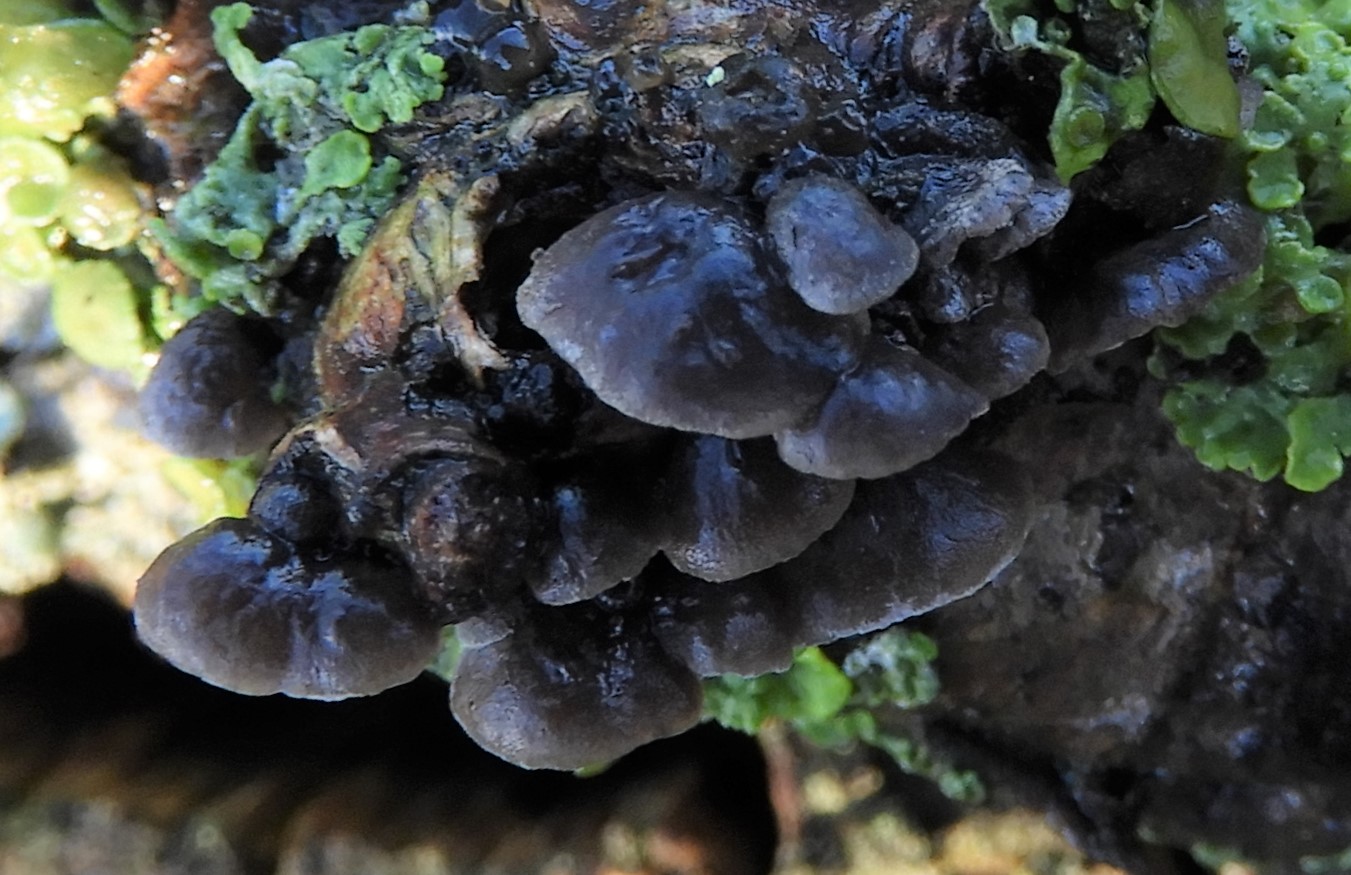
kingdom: Fungi
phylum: Basidiomycota
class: Agaricomycetes
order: Agaricales
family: Pleurotaceae
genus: Resupinatus
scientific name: Resupinatus trichotis
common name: mørkfiltet barkhat
